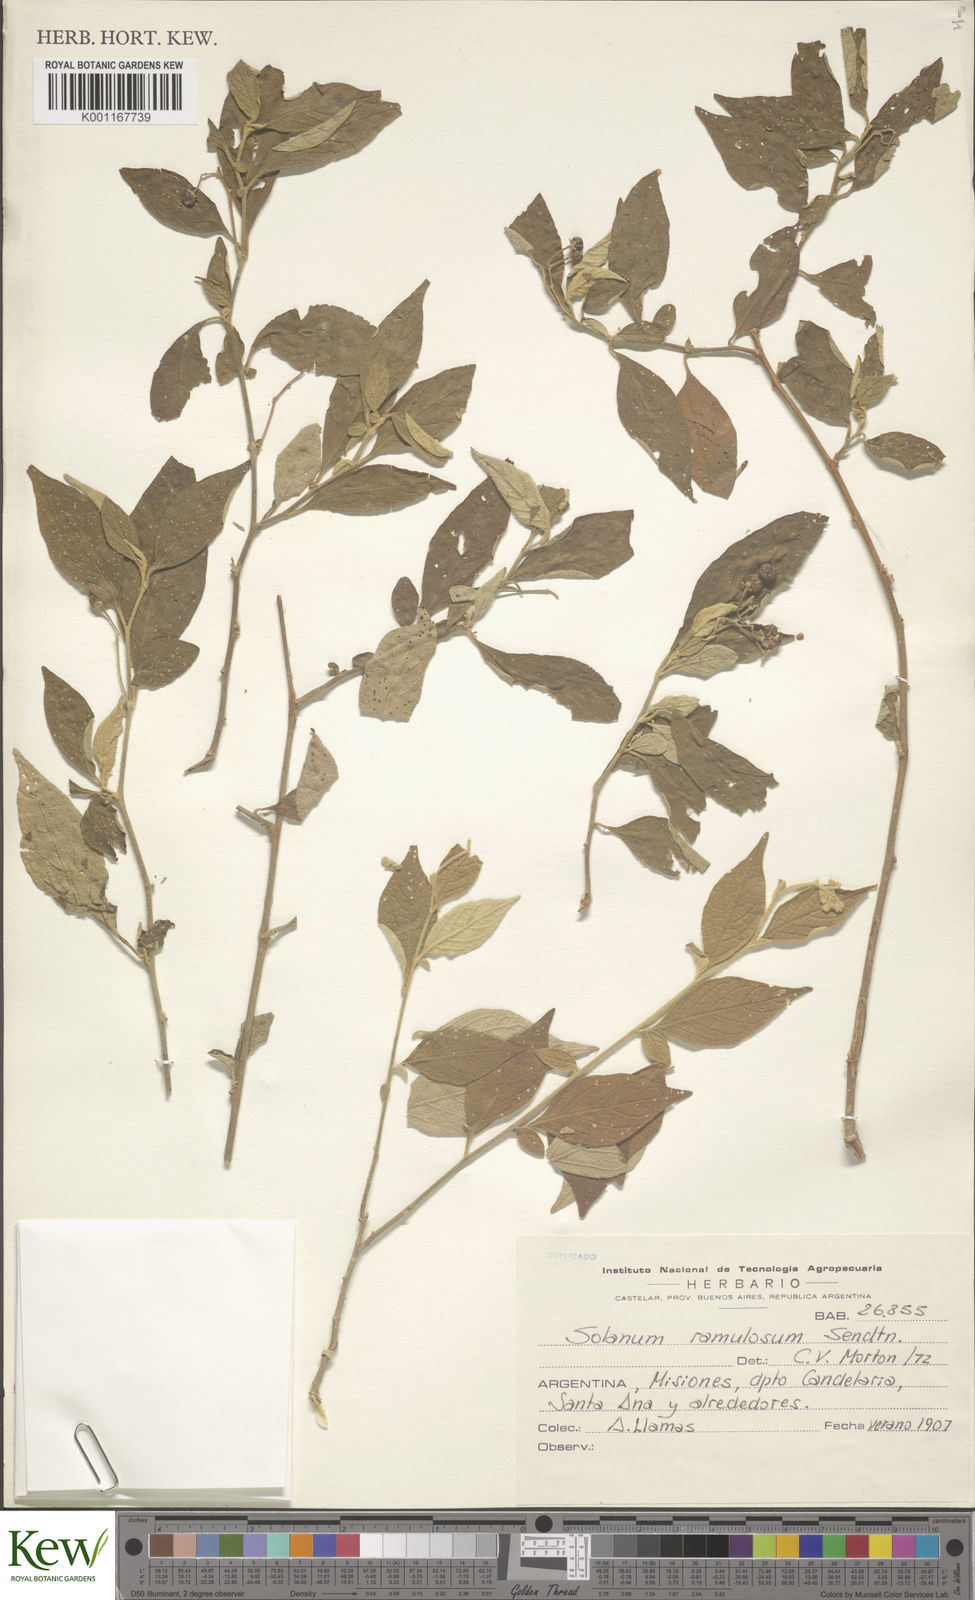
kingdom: Plantae
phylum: Tracheophyta
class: Magnoliopsida
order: Solanales
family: Solanaceae
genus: Solanum
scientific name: Solanum ramulosum
